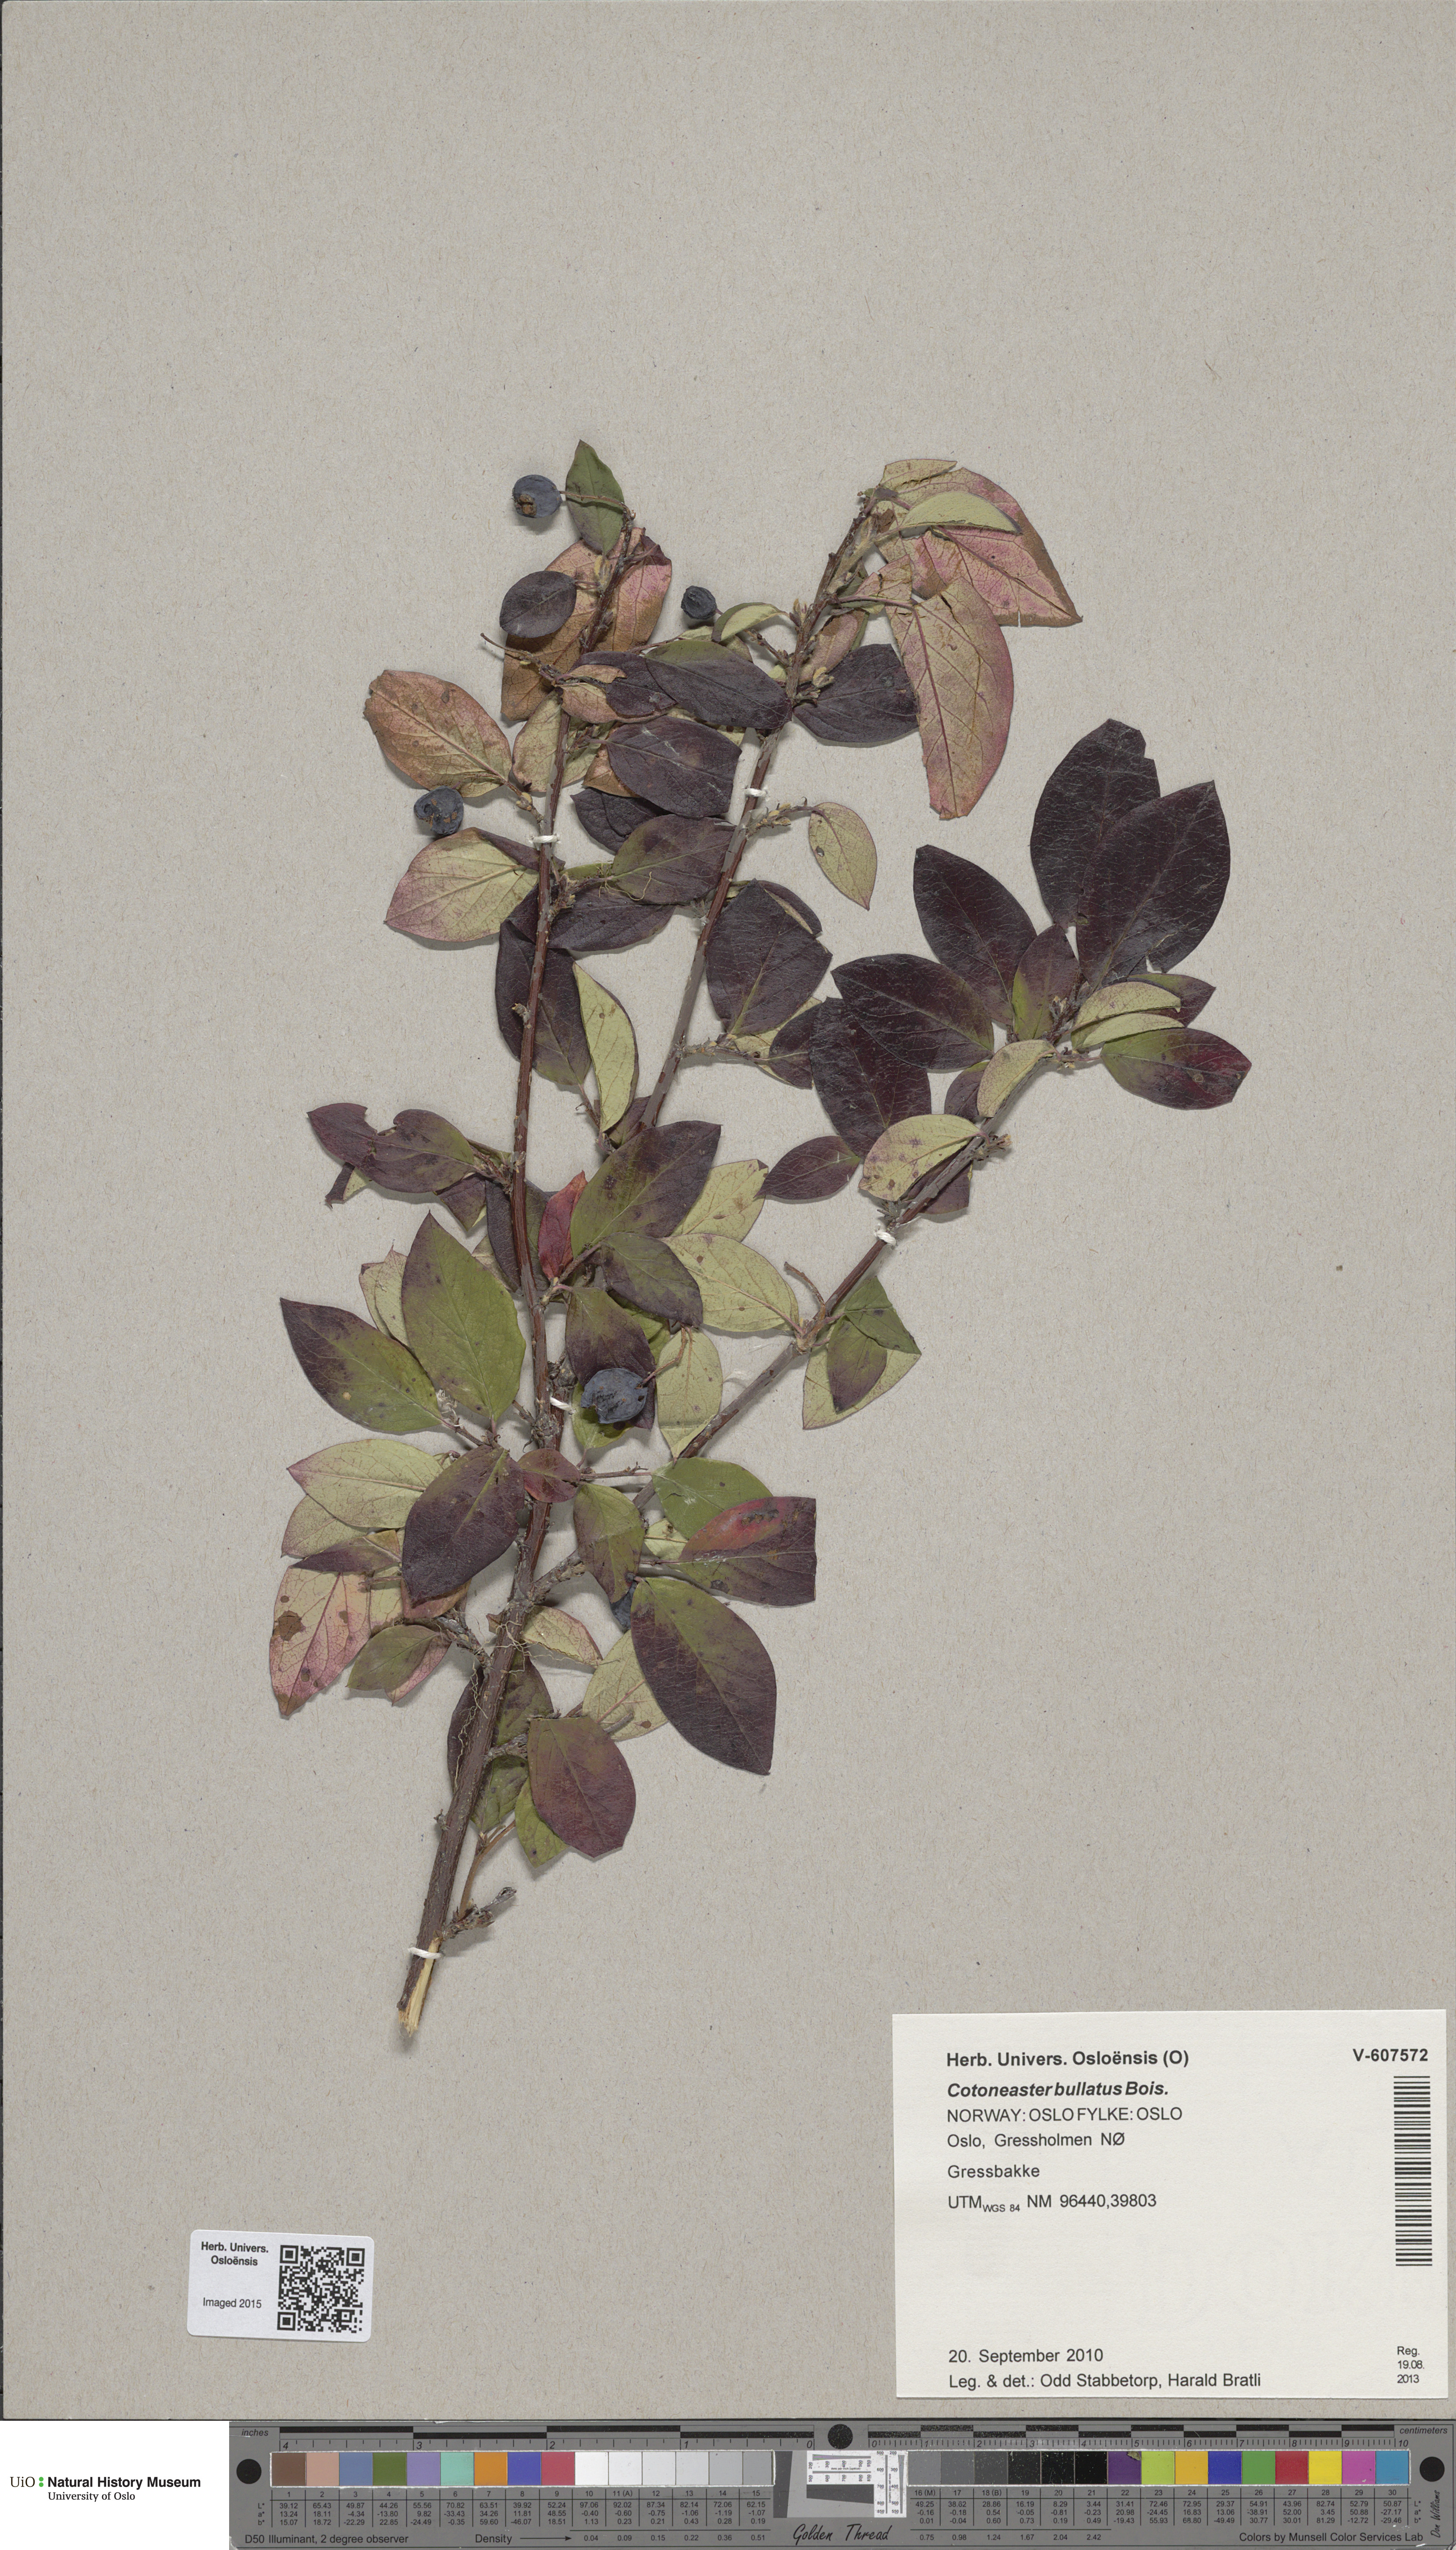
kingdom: Plantae
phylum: Tracheophyta
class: Magnoliopsida
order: Rosales
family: Rosaceae
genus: Cotoneaster
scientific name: Cotoneaster bullatus
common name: Hollyberry cotoneaster
